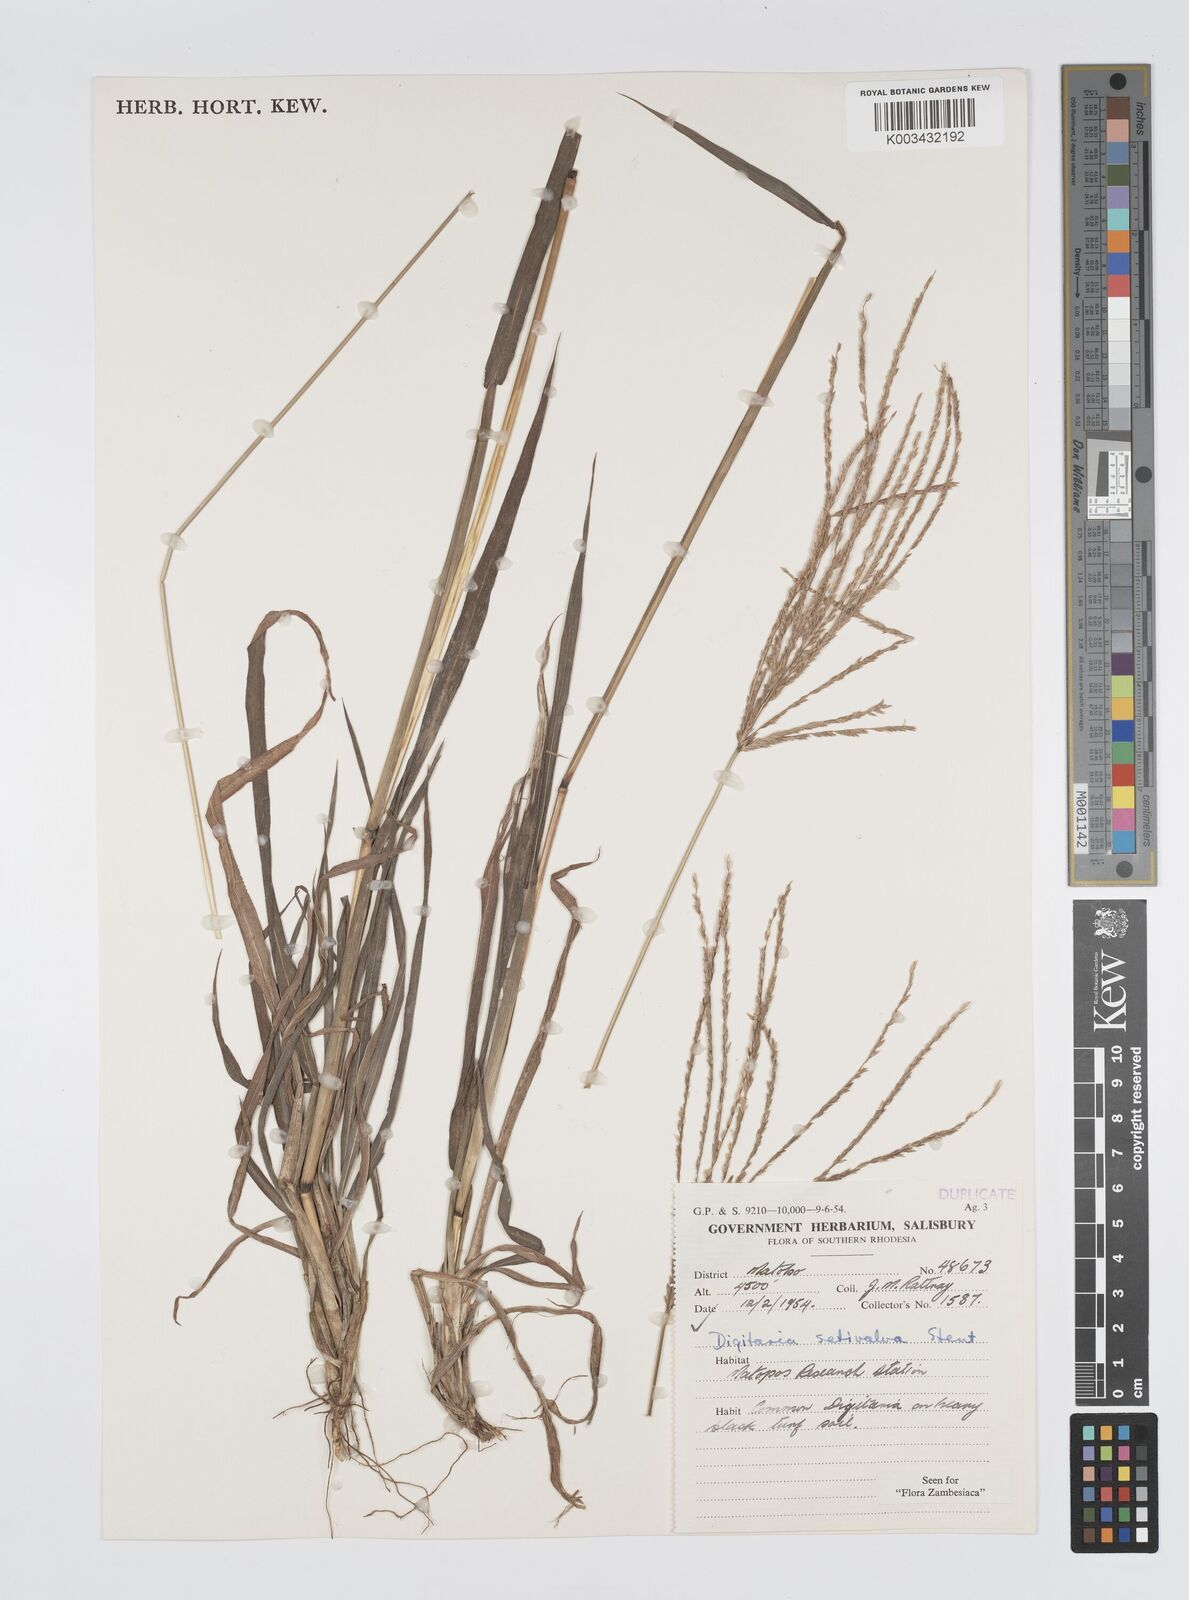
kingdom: Plantae
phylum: Tracheophyta
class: Liliopsida
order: Poales
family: Poaceae
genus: Digitaria
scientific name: Digitaria milanjiana
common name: Madagascar crabgrass
